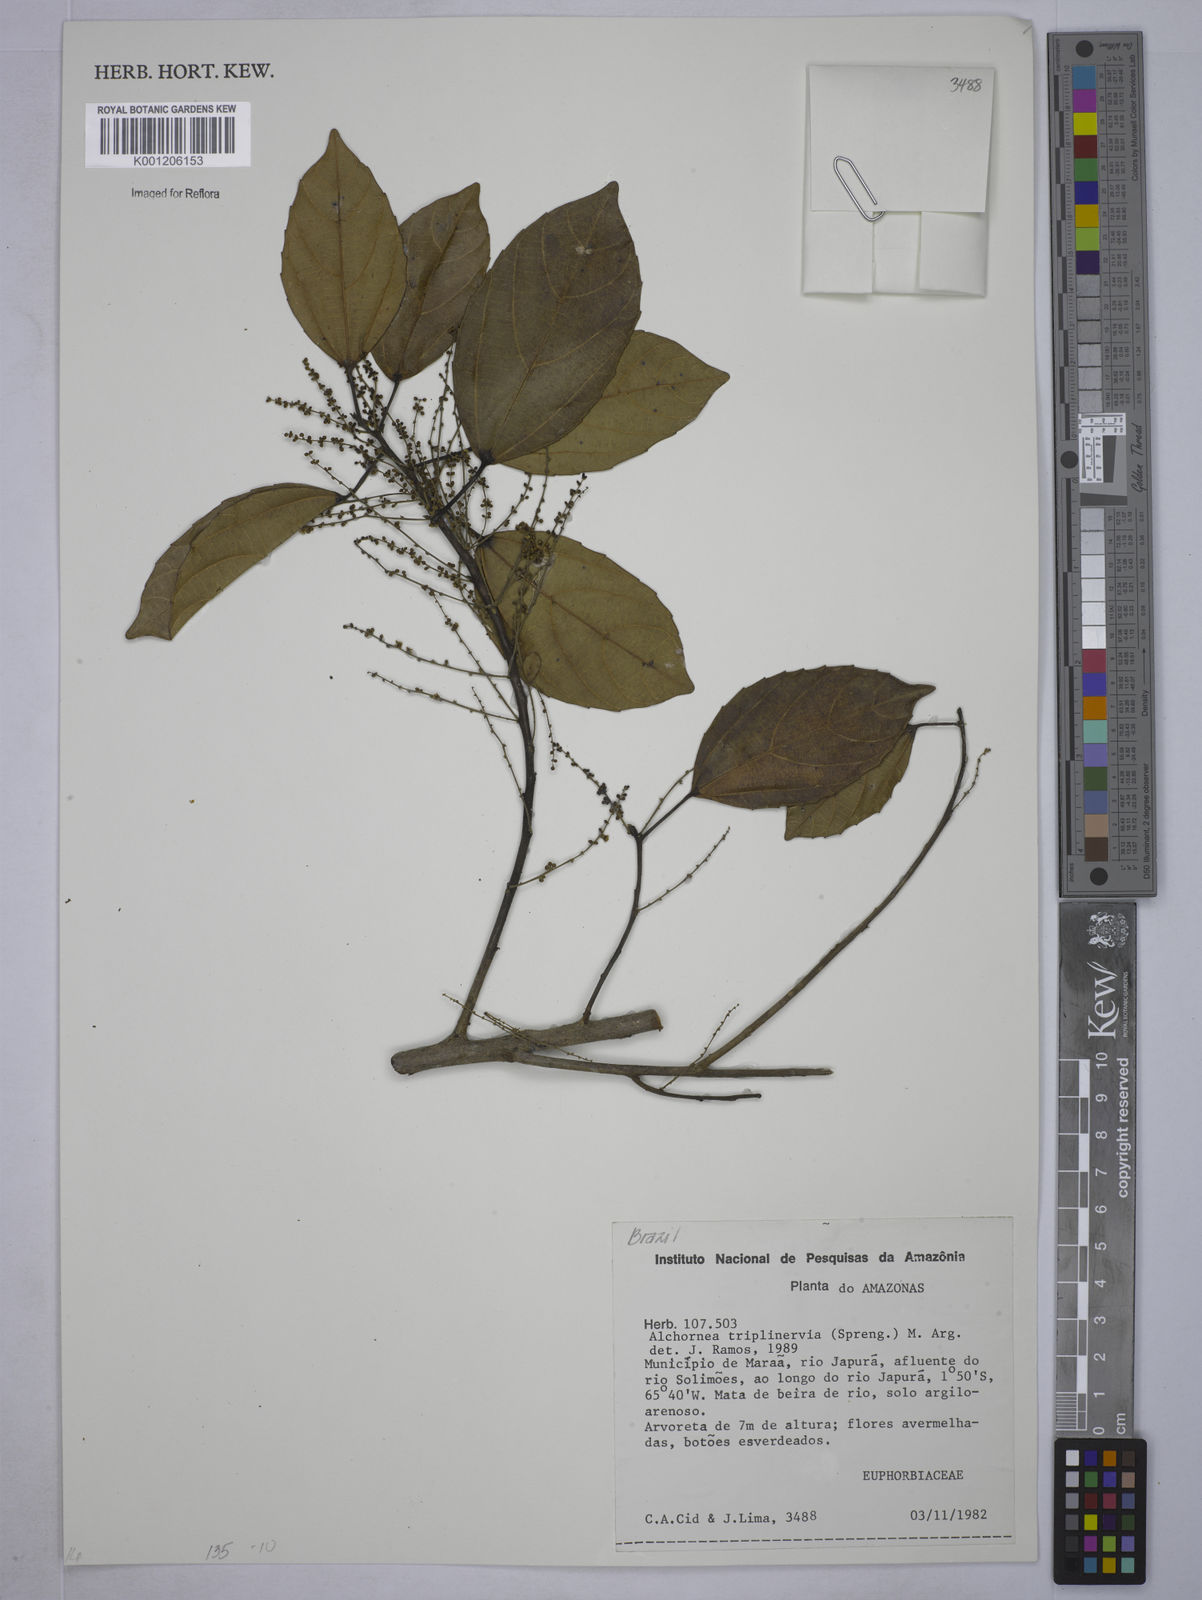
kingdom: Plantae
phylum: Tracheophyta
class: Magnoliopsida
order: Malpighiales
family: Euphorbiaceae
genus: Alchornea
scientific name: Alchornea
